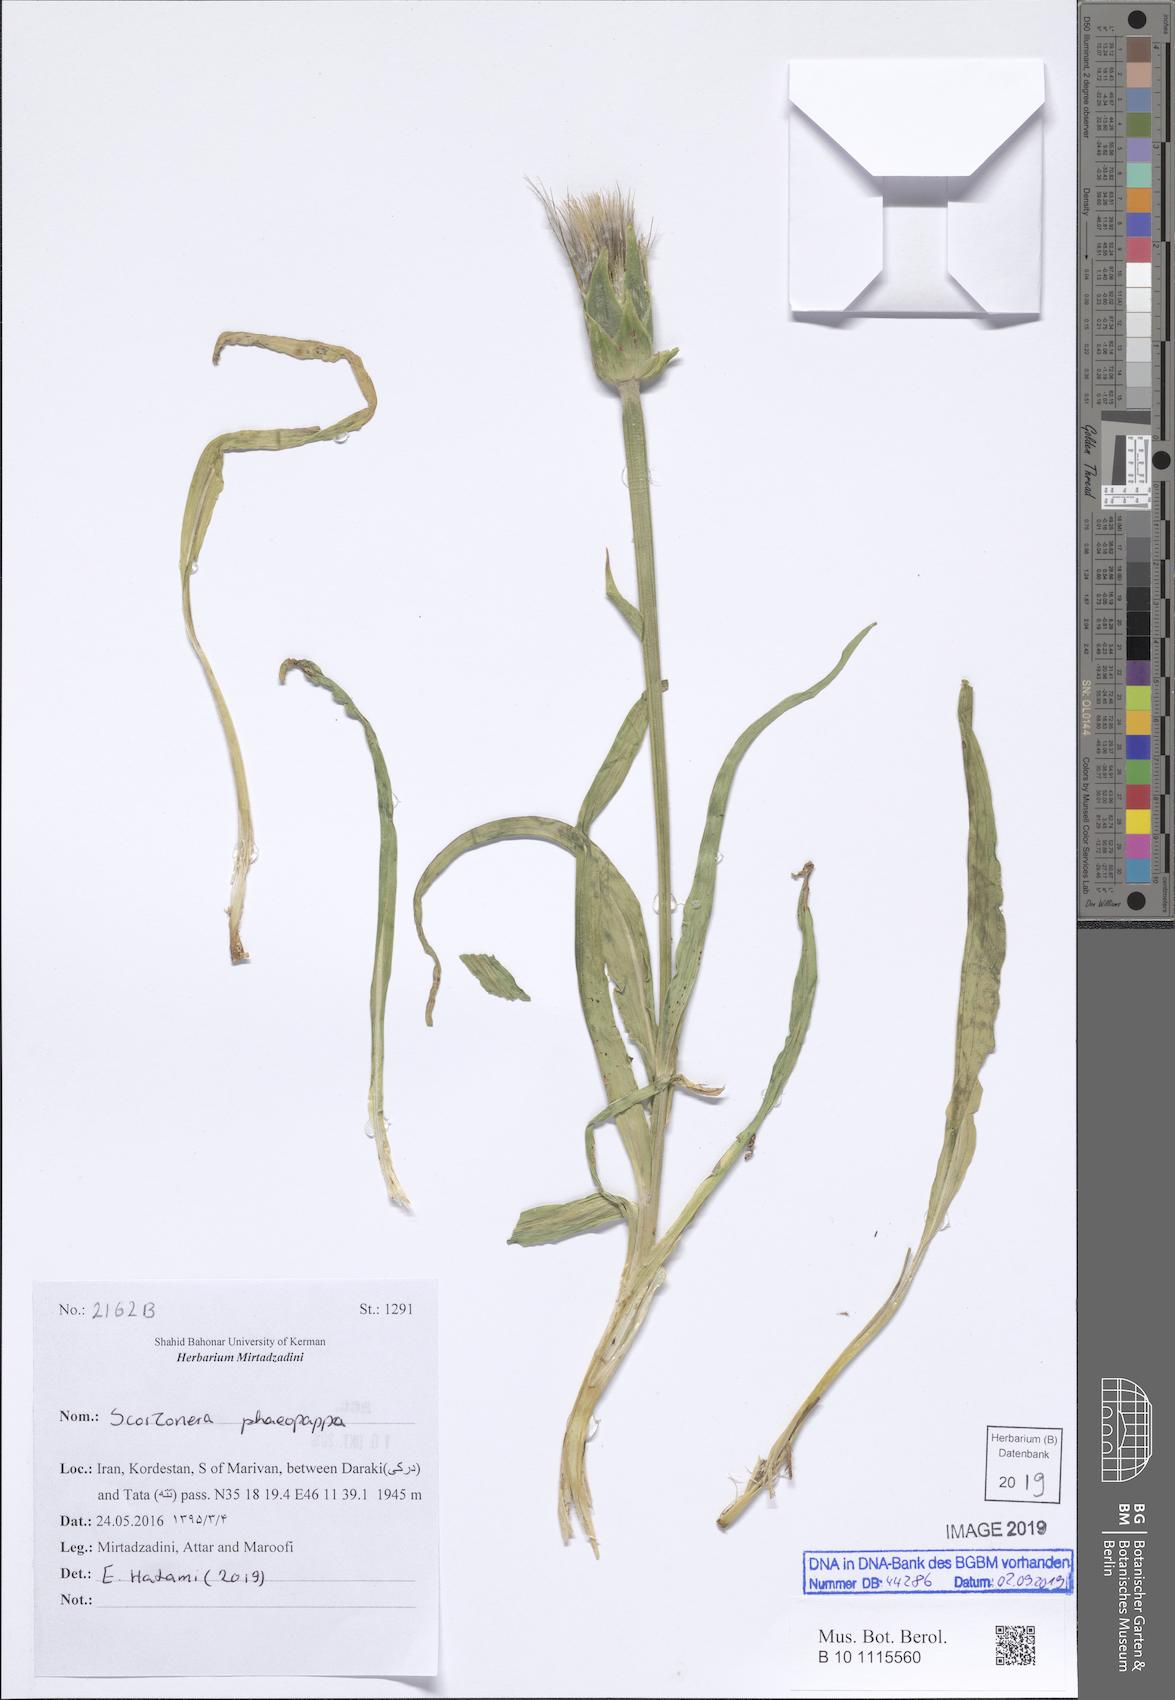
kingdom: Plantae
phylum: Tracheophyta
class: Magnoliopsida
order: Asterales
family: Asteraceae
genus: Pseudopodospermum
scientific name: Pseudopodospermum phaeopappum
